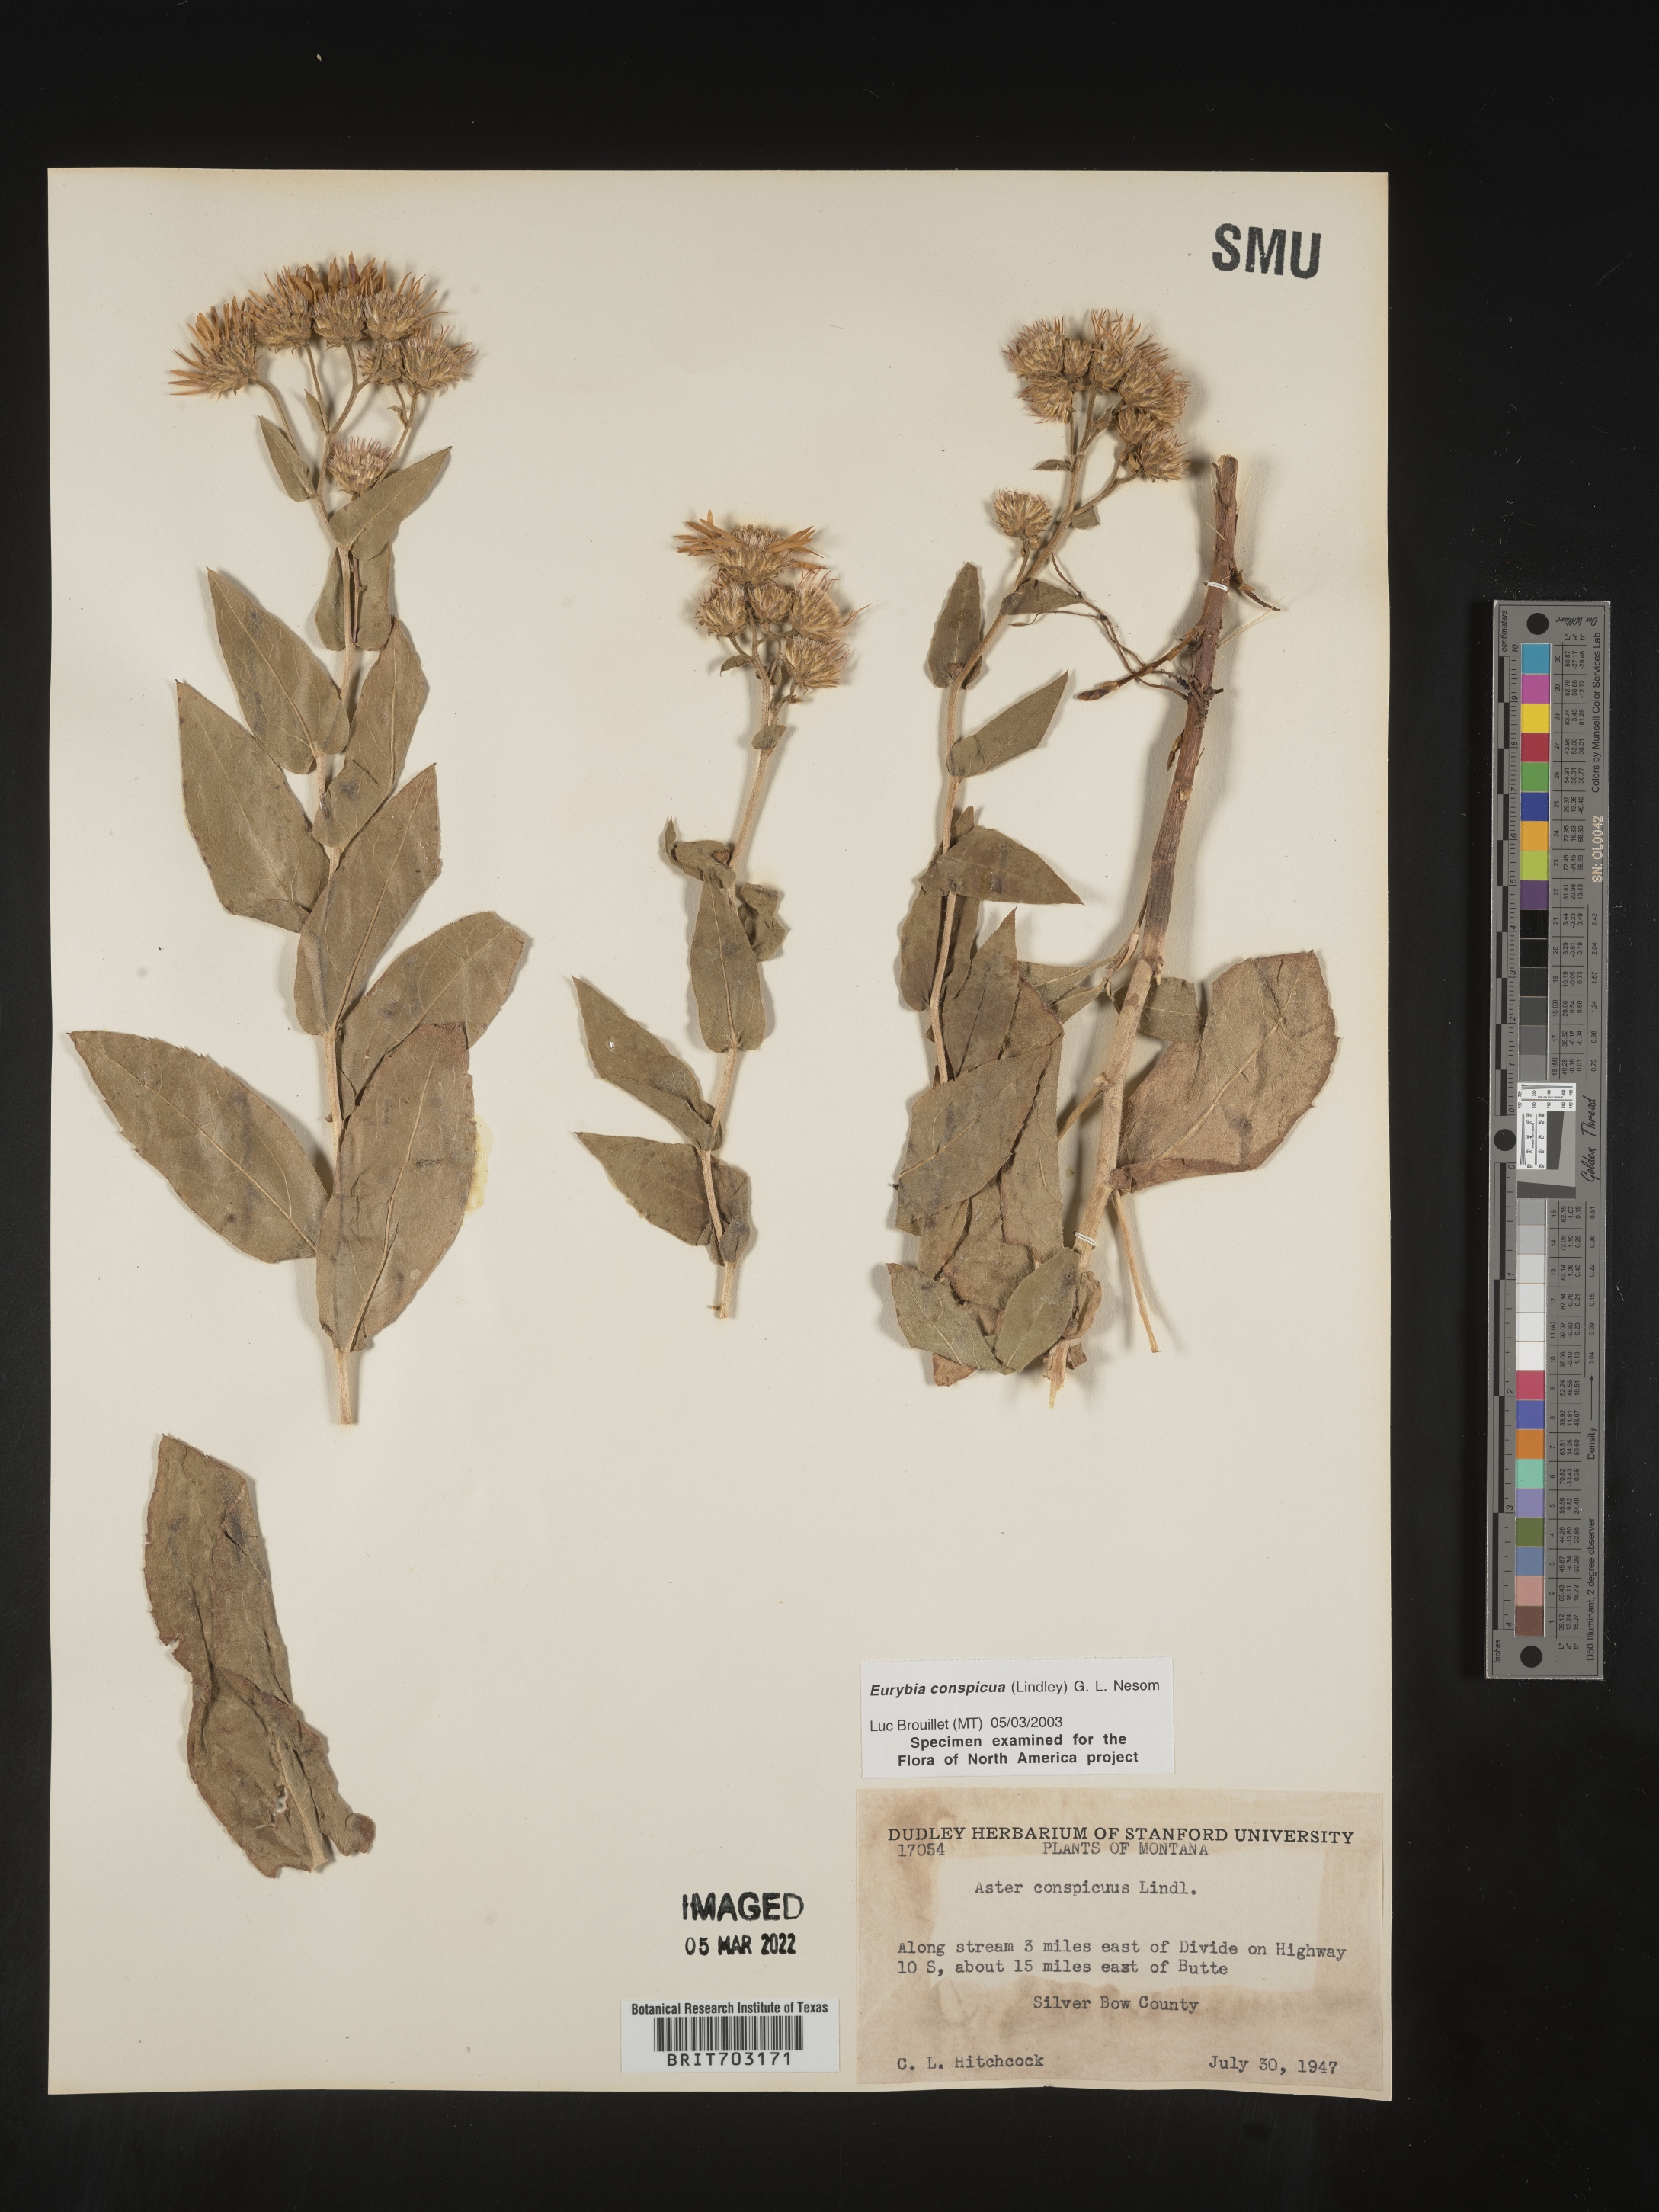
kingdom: Plantae
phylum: Tracheophyta
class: Magnoliopsida
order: Asterales
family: Asteraceae
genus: Eurybia
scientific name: Eurybia conspicua
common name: Showy aster
